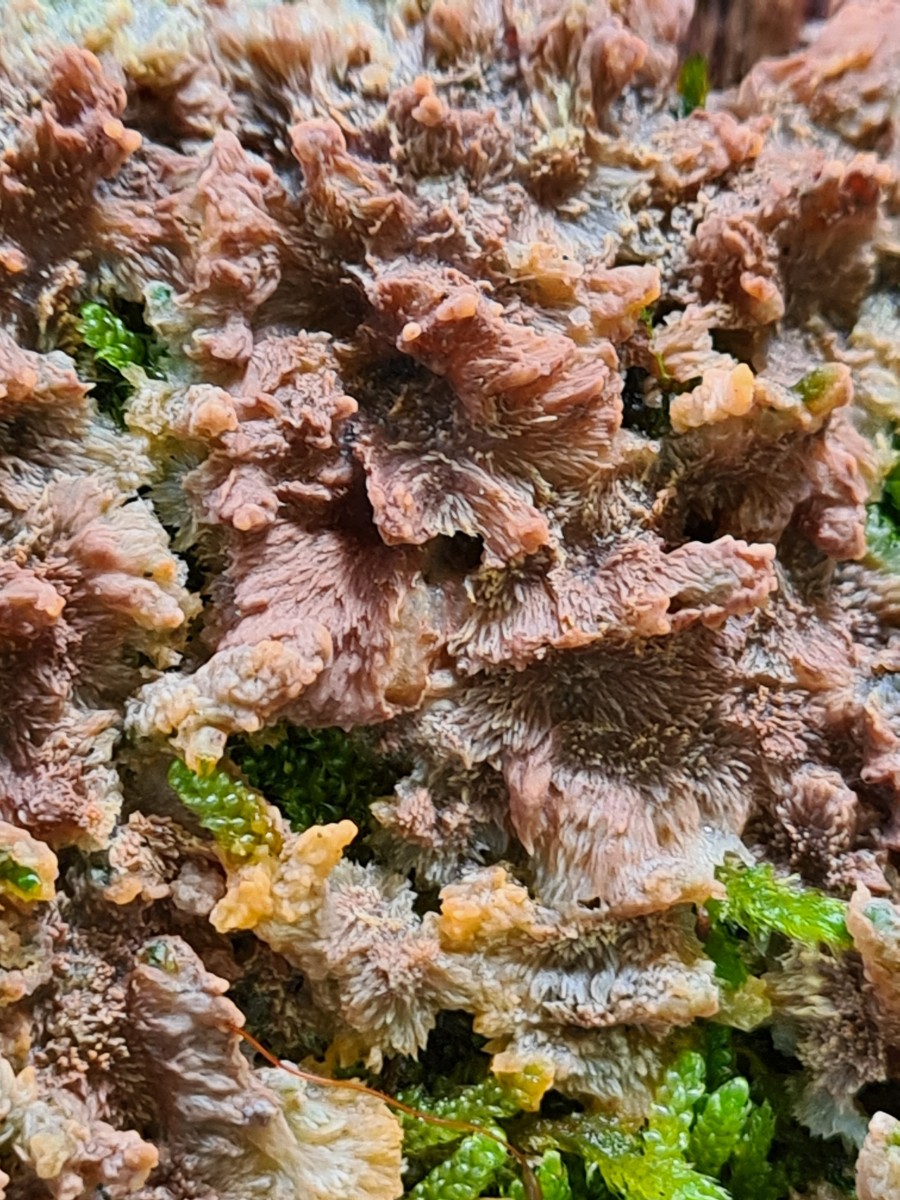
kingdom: Fungi
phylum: Basidiomycota
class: Agaricomycetes
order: Polyporales
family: Meruliaceae
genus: Phlebia
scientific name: Phlebia radiata
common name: stråle-åresvamp
